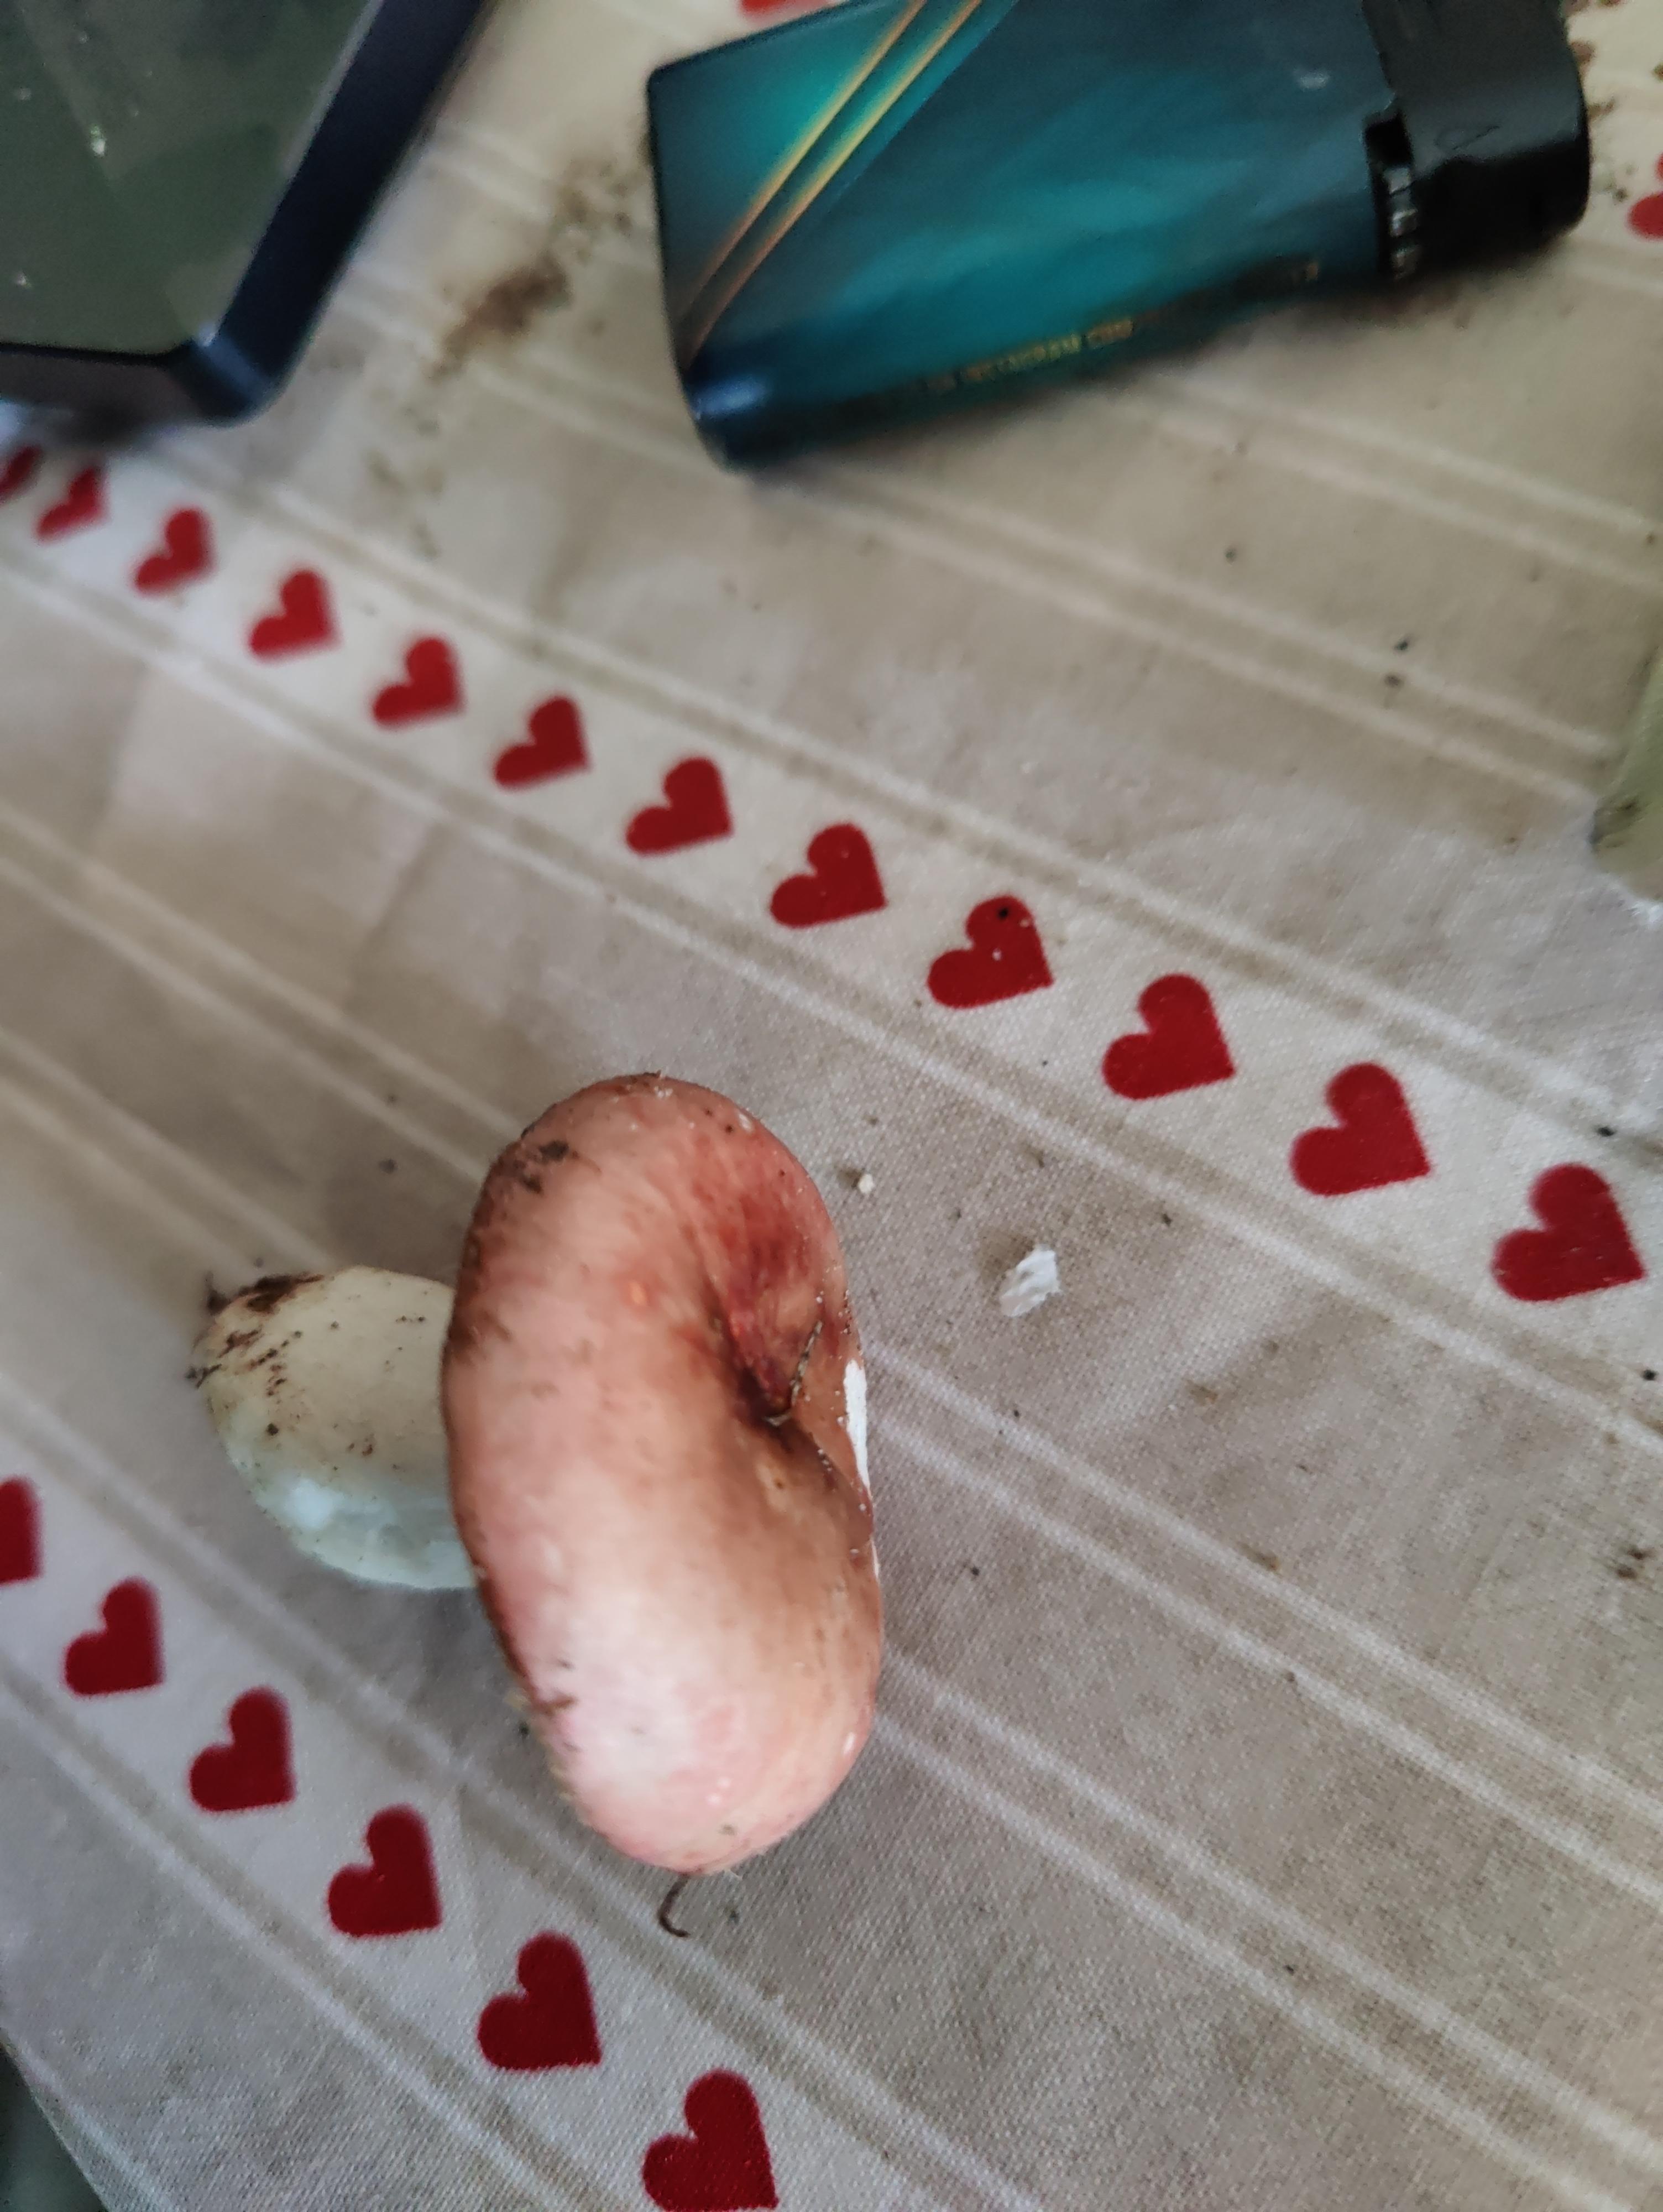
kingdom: Fungi
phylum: Basidiomycota
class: Agaricomycetes
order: Russulales
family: Russulaceae
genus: Russula
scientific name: Russula
